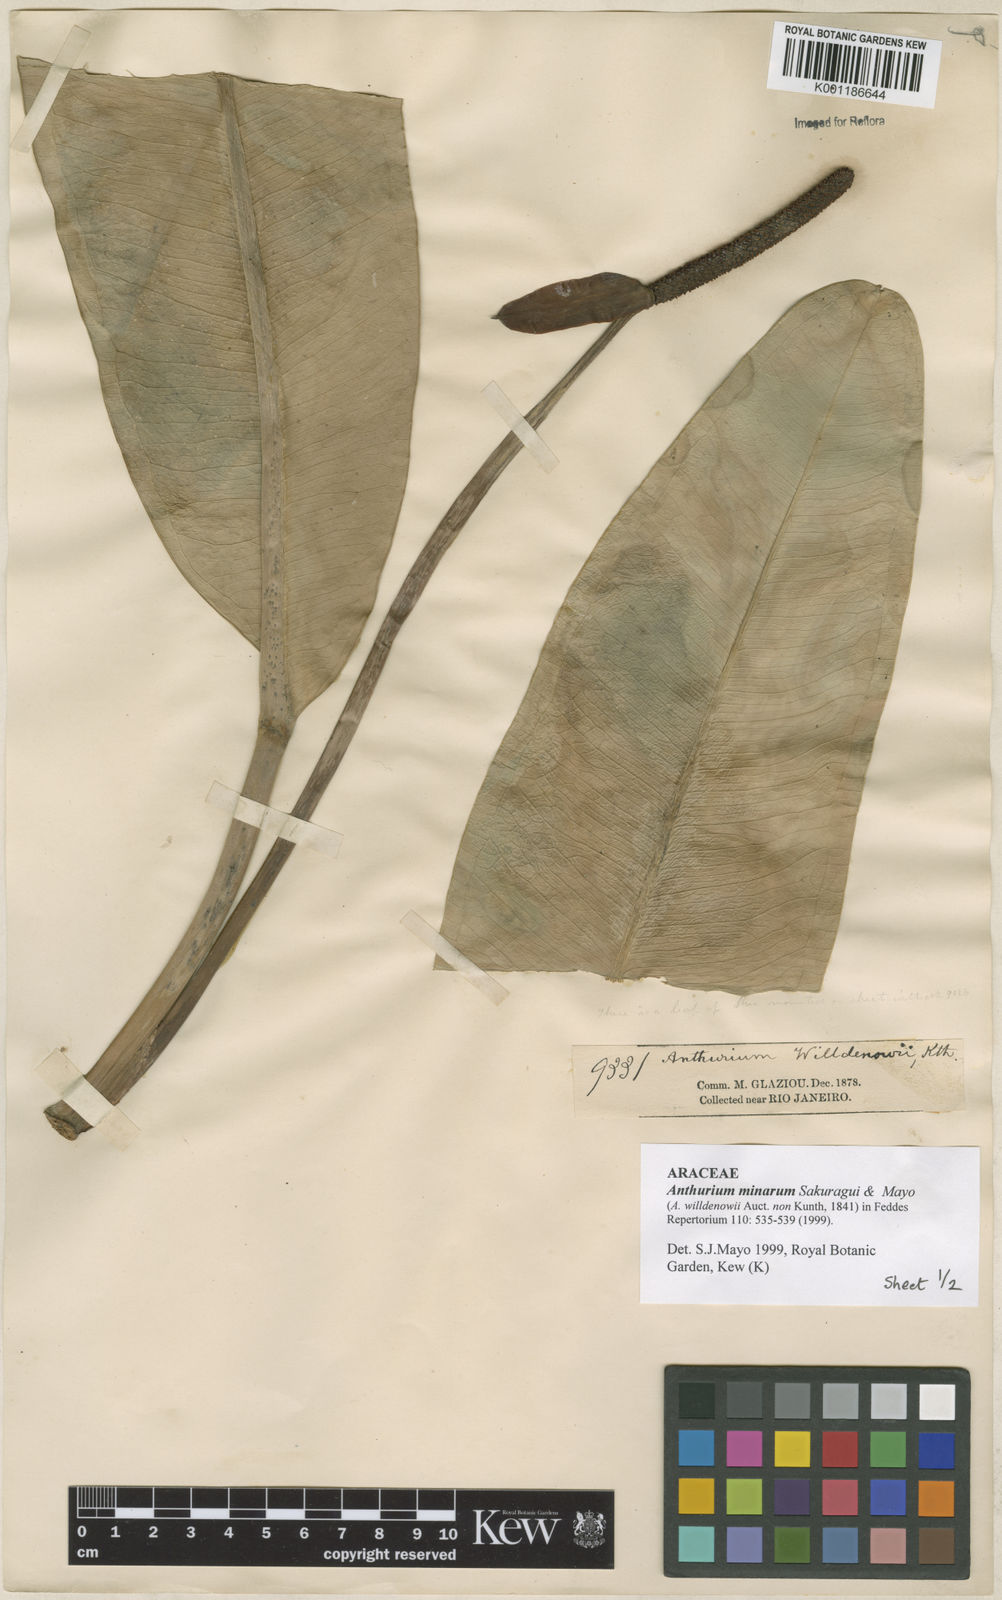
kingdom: Plantae
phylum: Tracheophyta
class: Liliopsida
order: Alismatales
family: Araceae
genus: Anthurium
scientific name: Anthurium minarum
